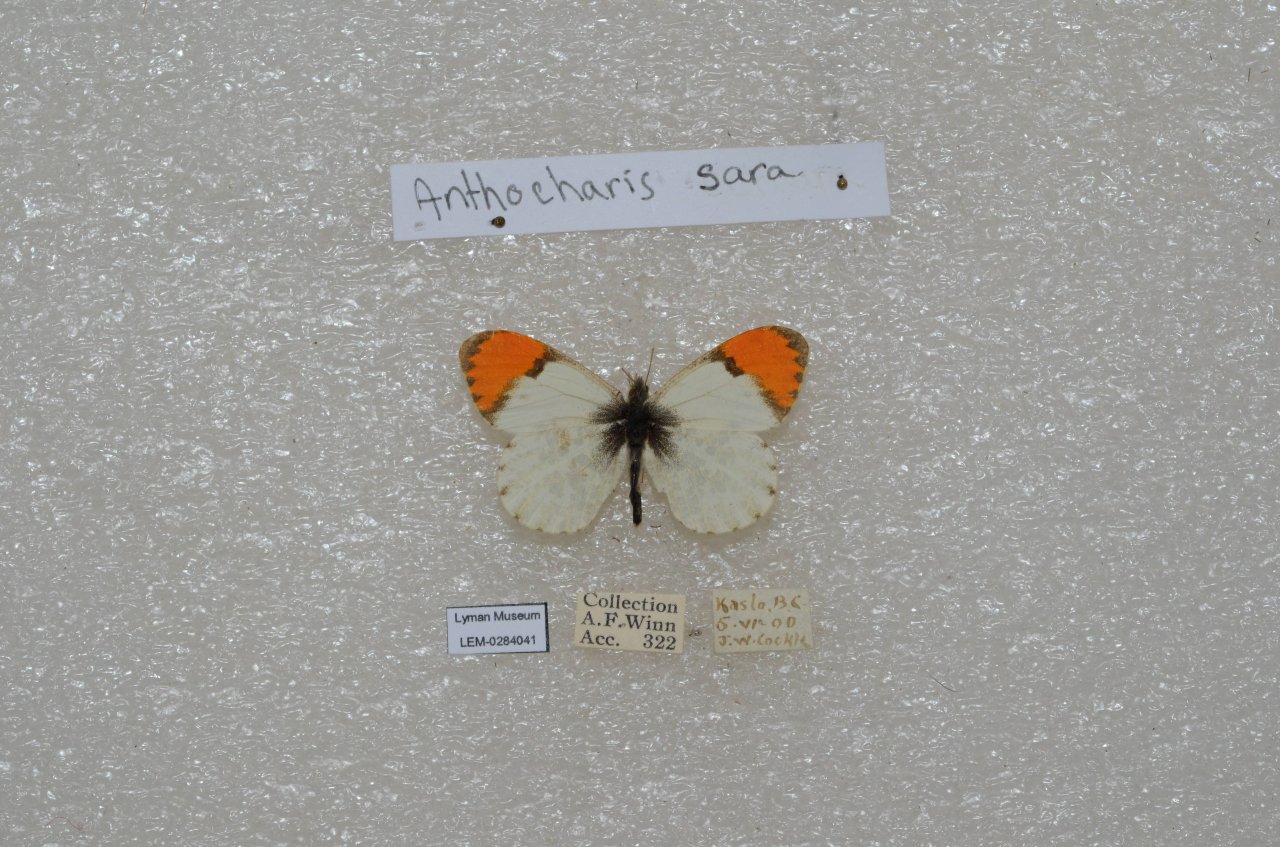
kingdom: Animalia
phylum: Arthropoda
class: Insecta
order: Lepidoptera
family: Pieridae
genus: Anthocharis
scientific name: Anthocharis sara
